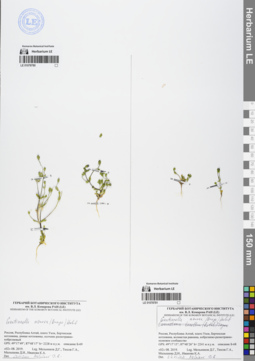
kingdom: Plantae
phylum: Tracheophyta
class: Magnoliopsida
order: Gentianales
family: Gentianaceae
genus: Gentianella
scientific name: Gentianella azurea
